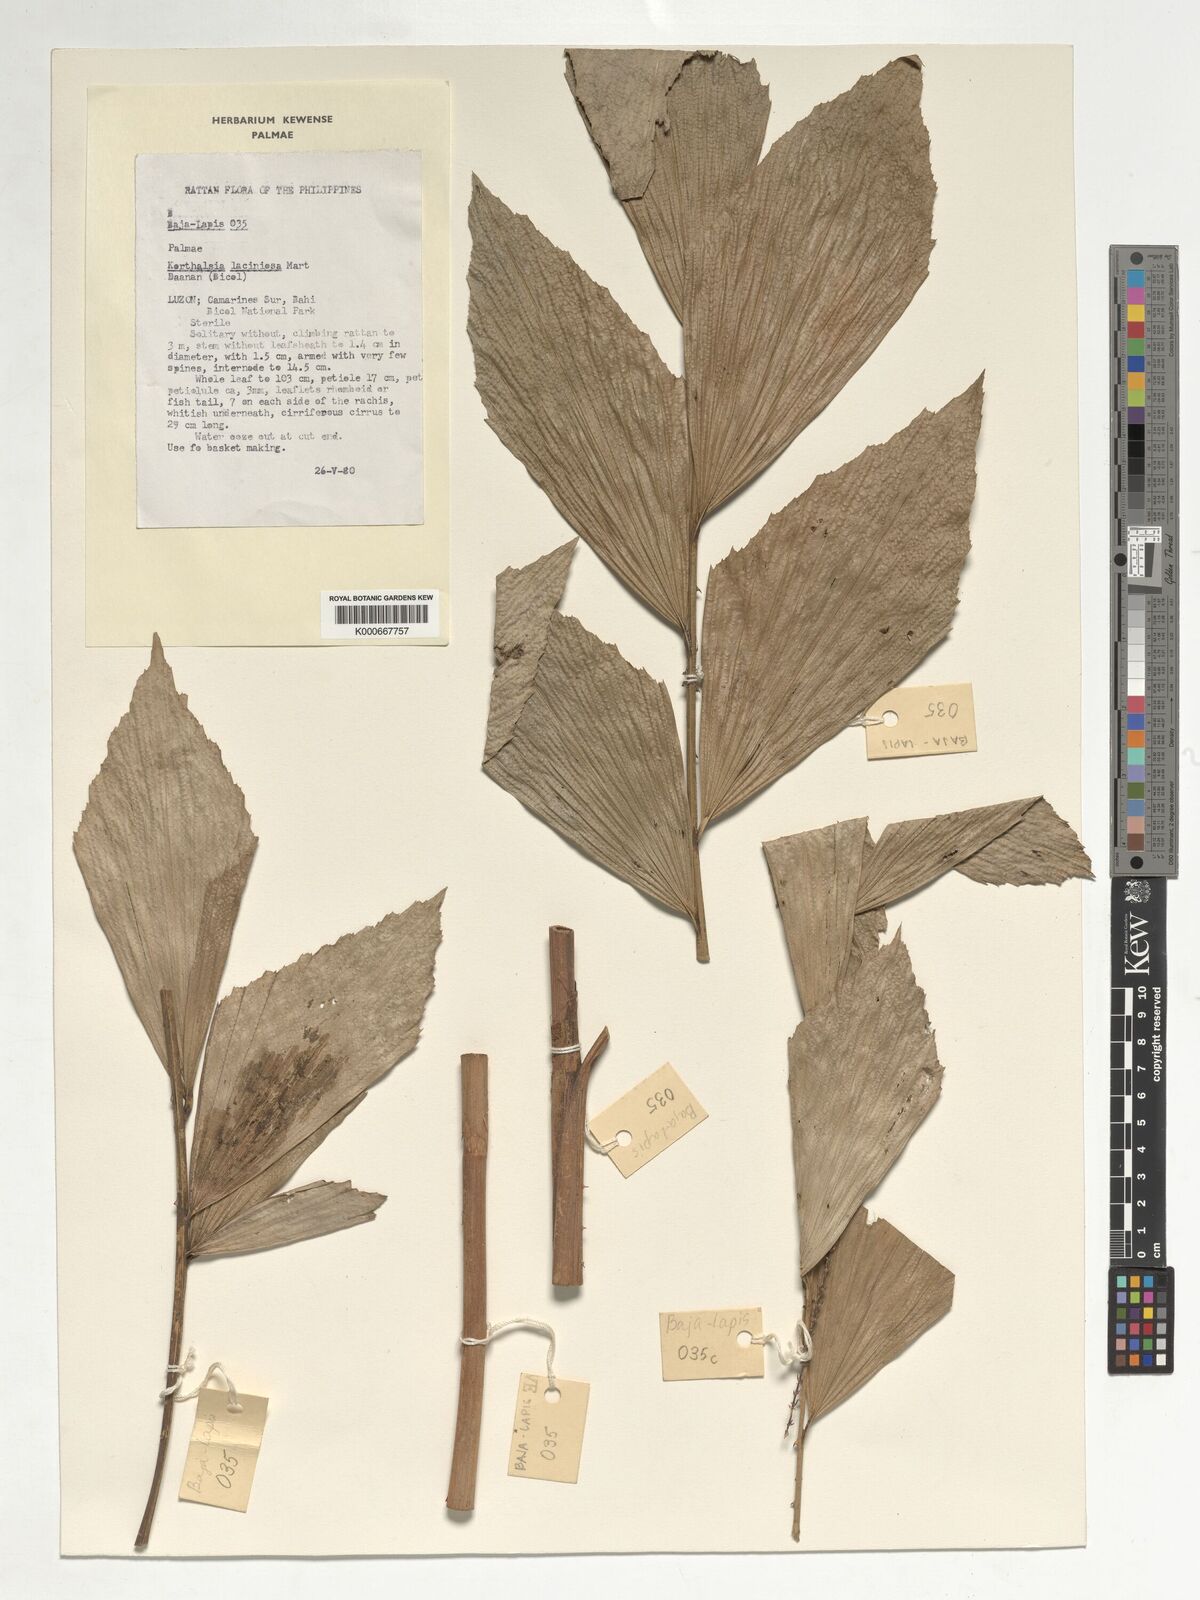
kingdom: Plantae
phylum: Tracheophyta
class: Liliopsida
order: Arecales
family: Arecaceae
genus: Korthalsia
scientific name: Korthalsia laciniosa
